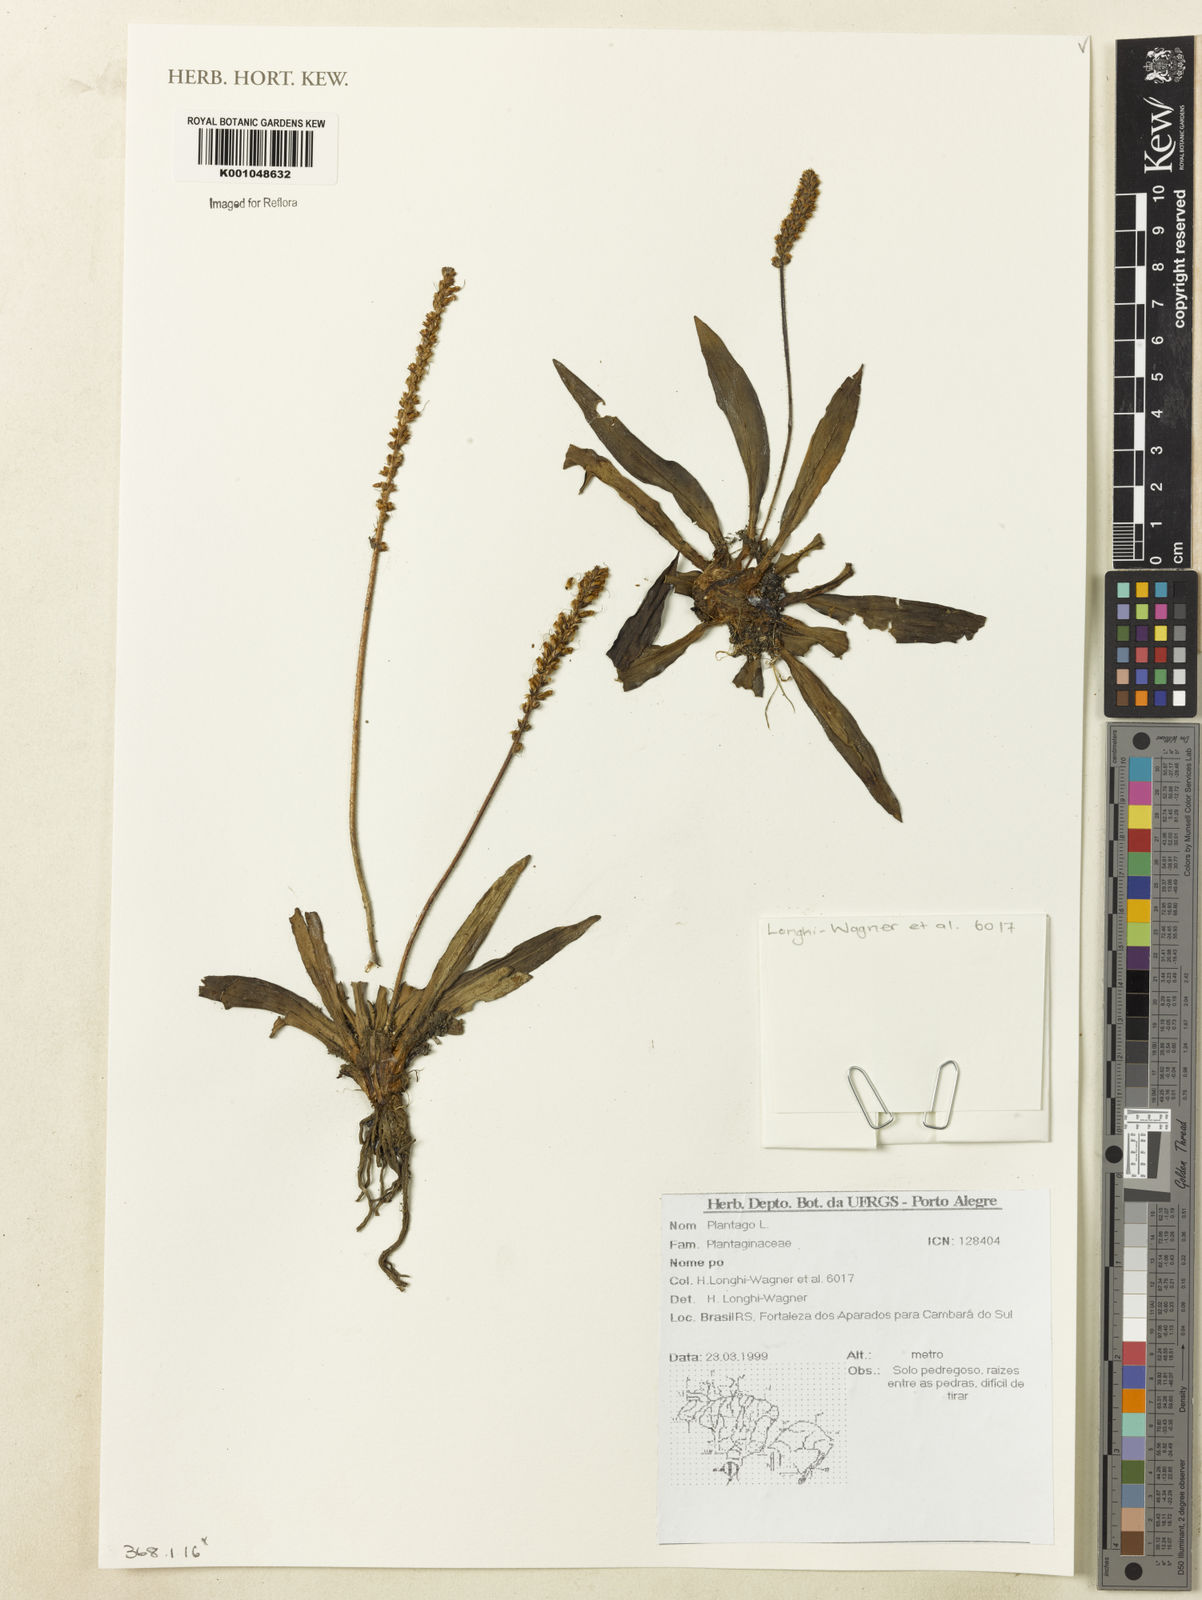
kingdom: Plantae
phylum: Tracheophyta
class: Magnoliopsida
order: Lamiales
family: Plantaginaceae
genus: Plantago
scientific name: Plantago
